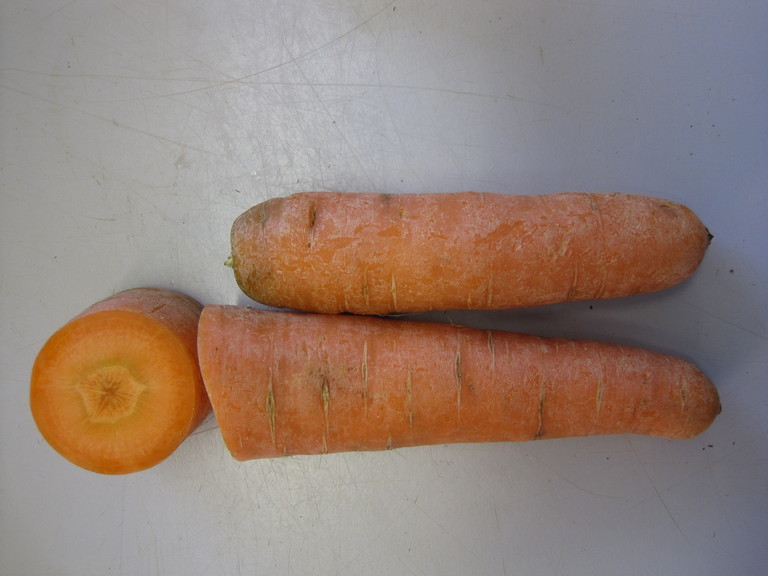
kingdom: Plantae
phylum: Tracheophyta
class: Magnoliopsida
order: Apiales
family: Apiaceae
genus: Daucus
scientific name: Daucus carota
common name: Wild carrot
